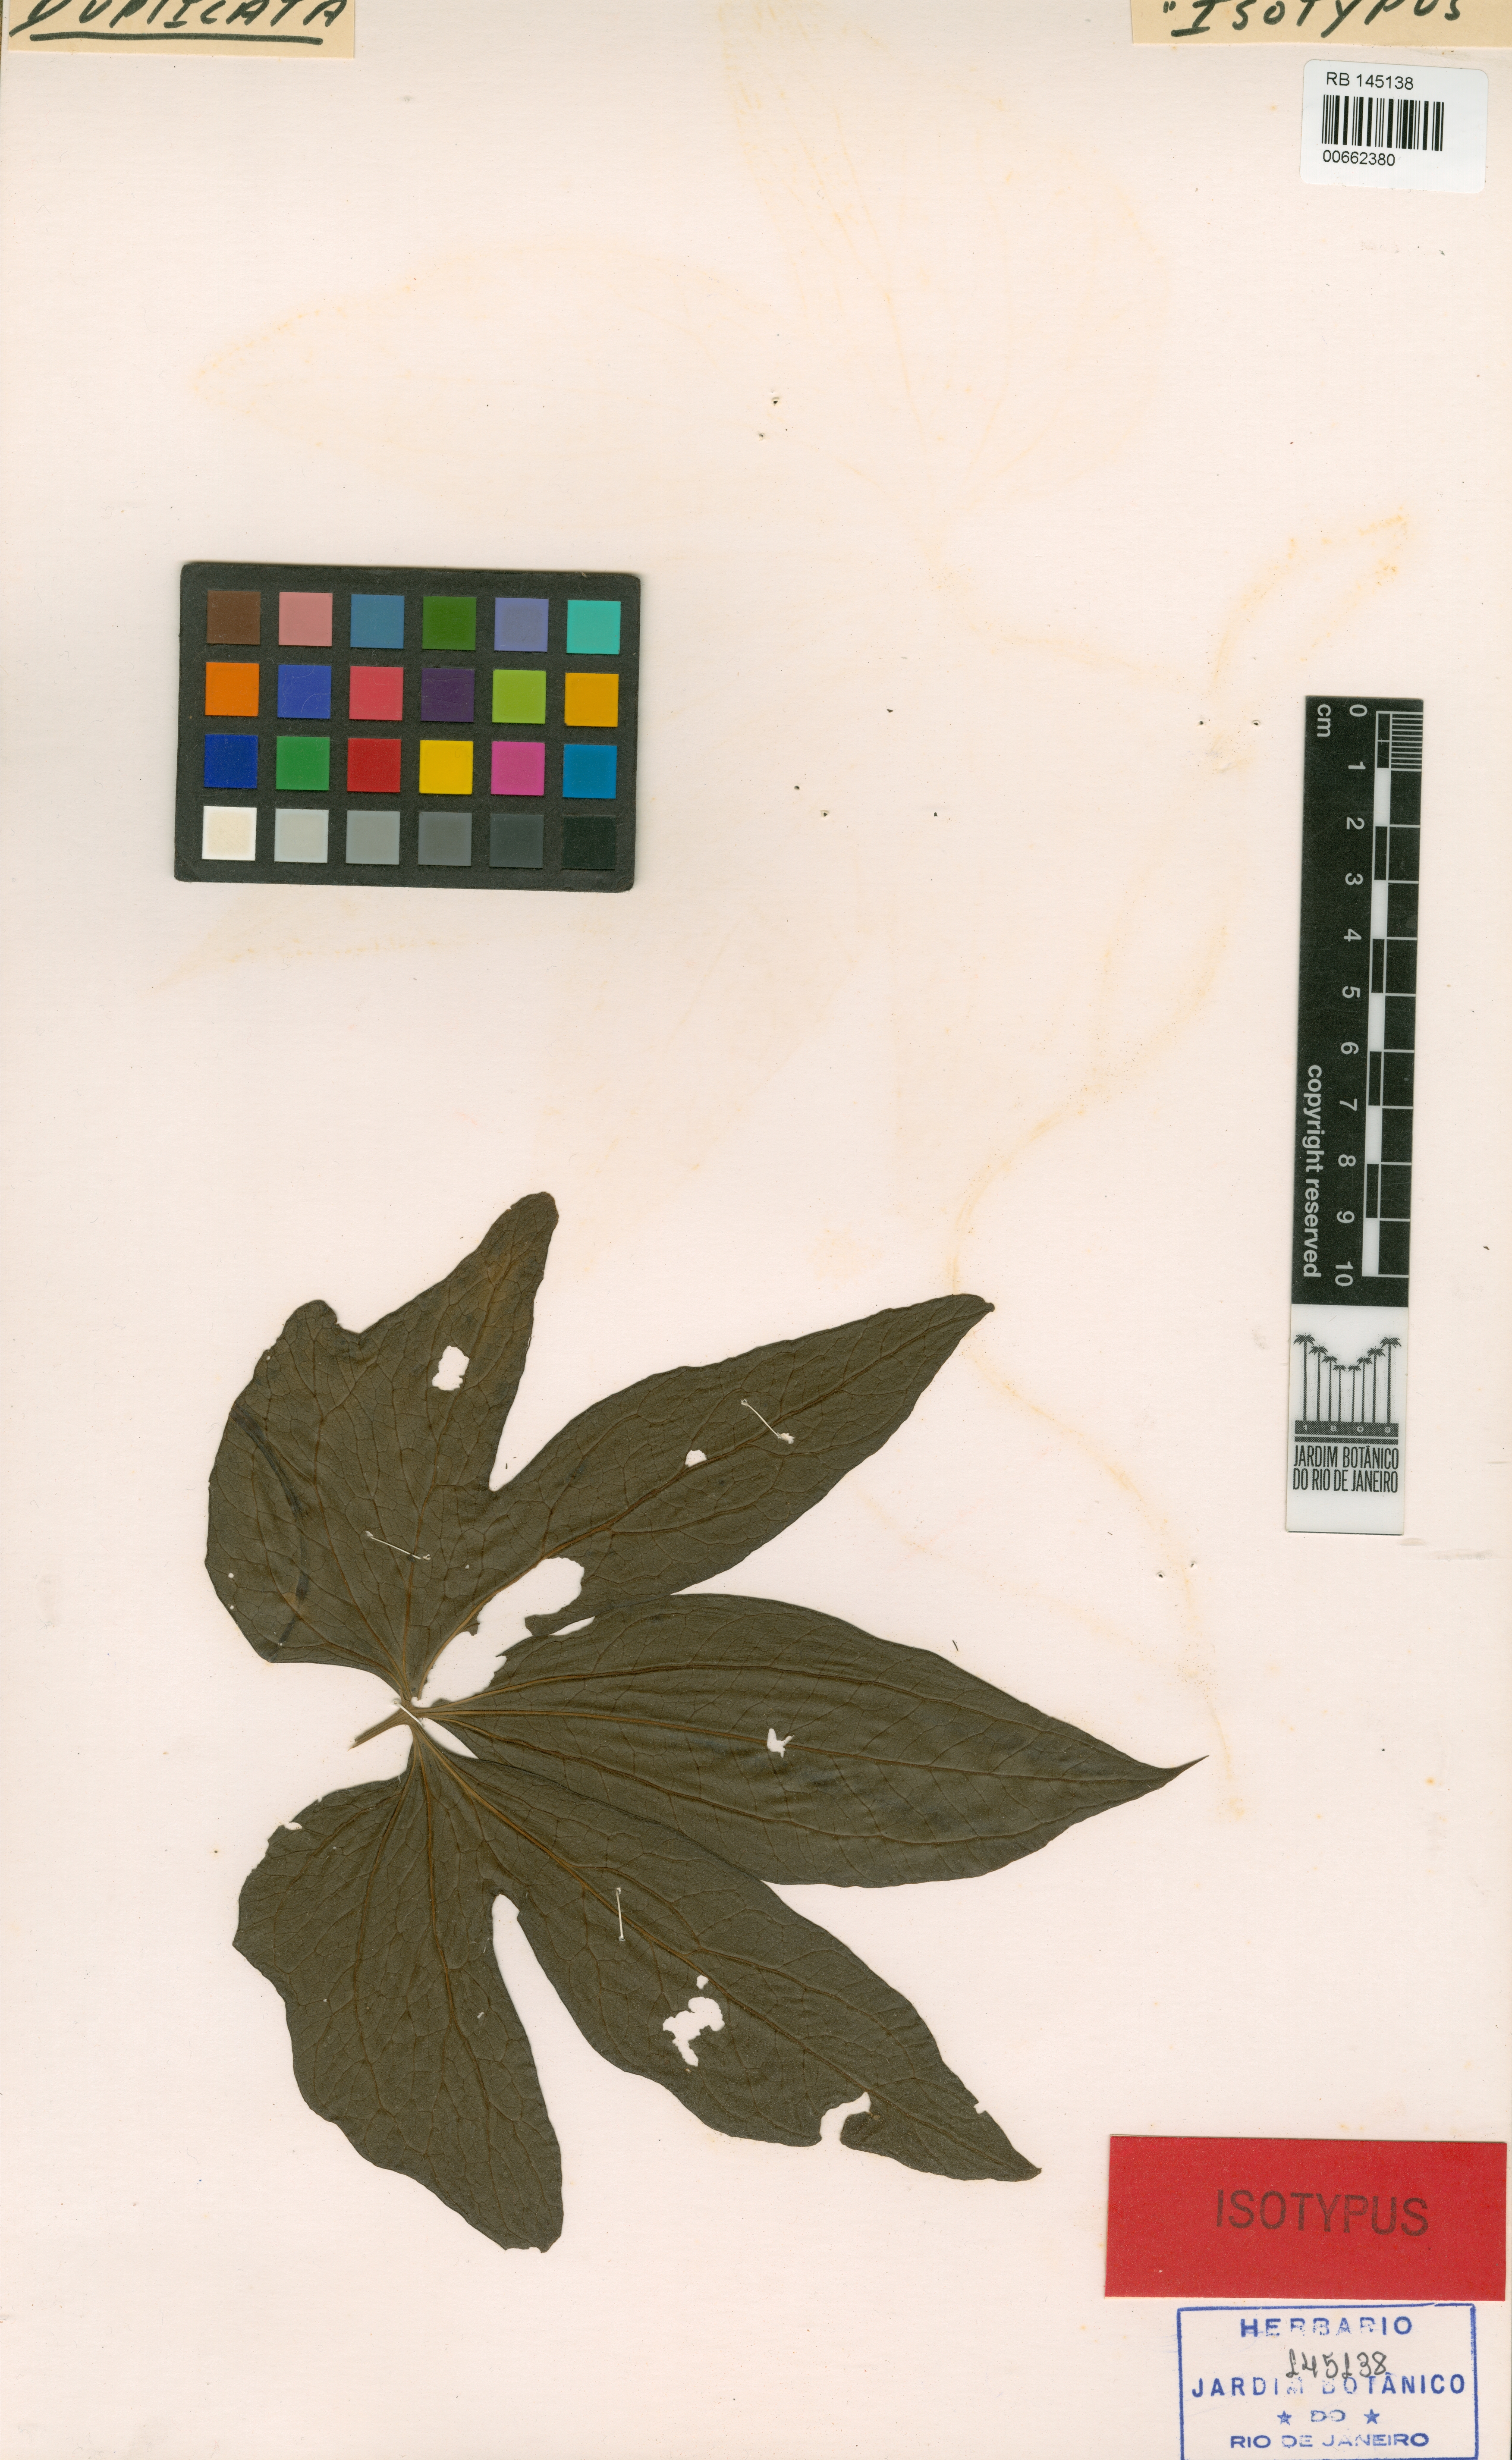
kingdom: Plantae
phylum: Tracheophyta
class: Liliopsida
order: Dioscoreales
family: Dioscoreaceae
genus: Dioscorea
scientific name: Dioscorea margarethia
